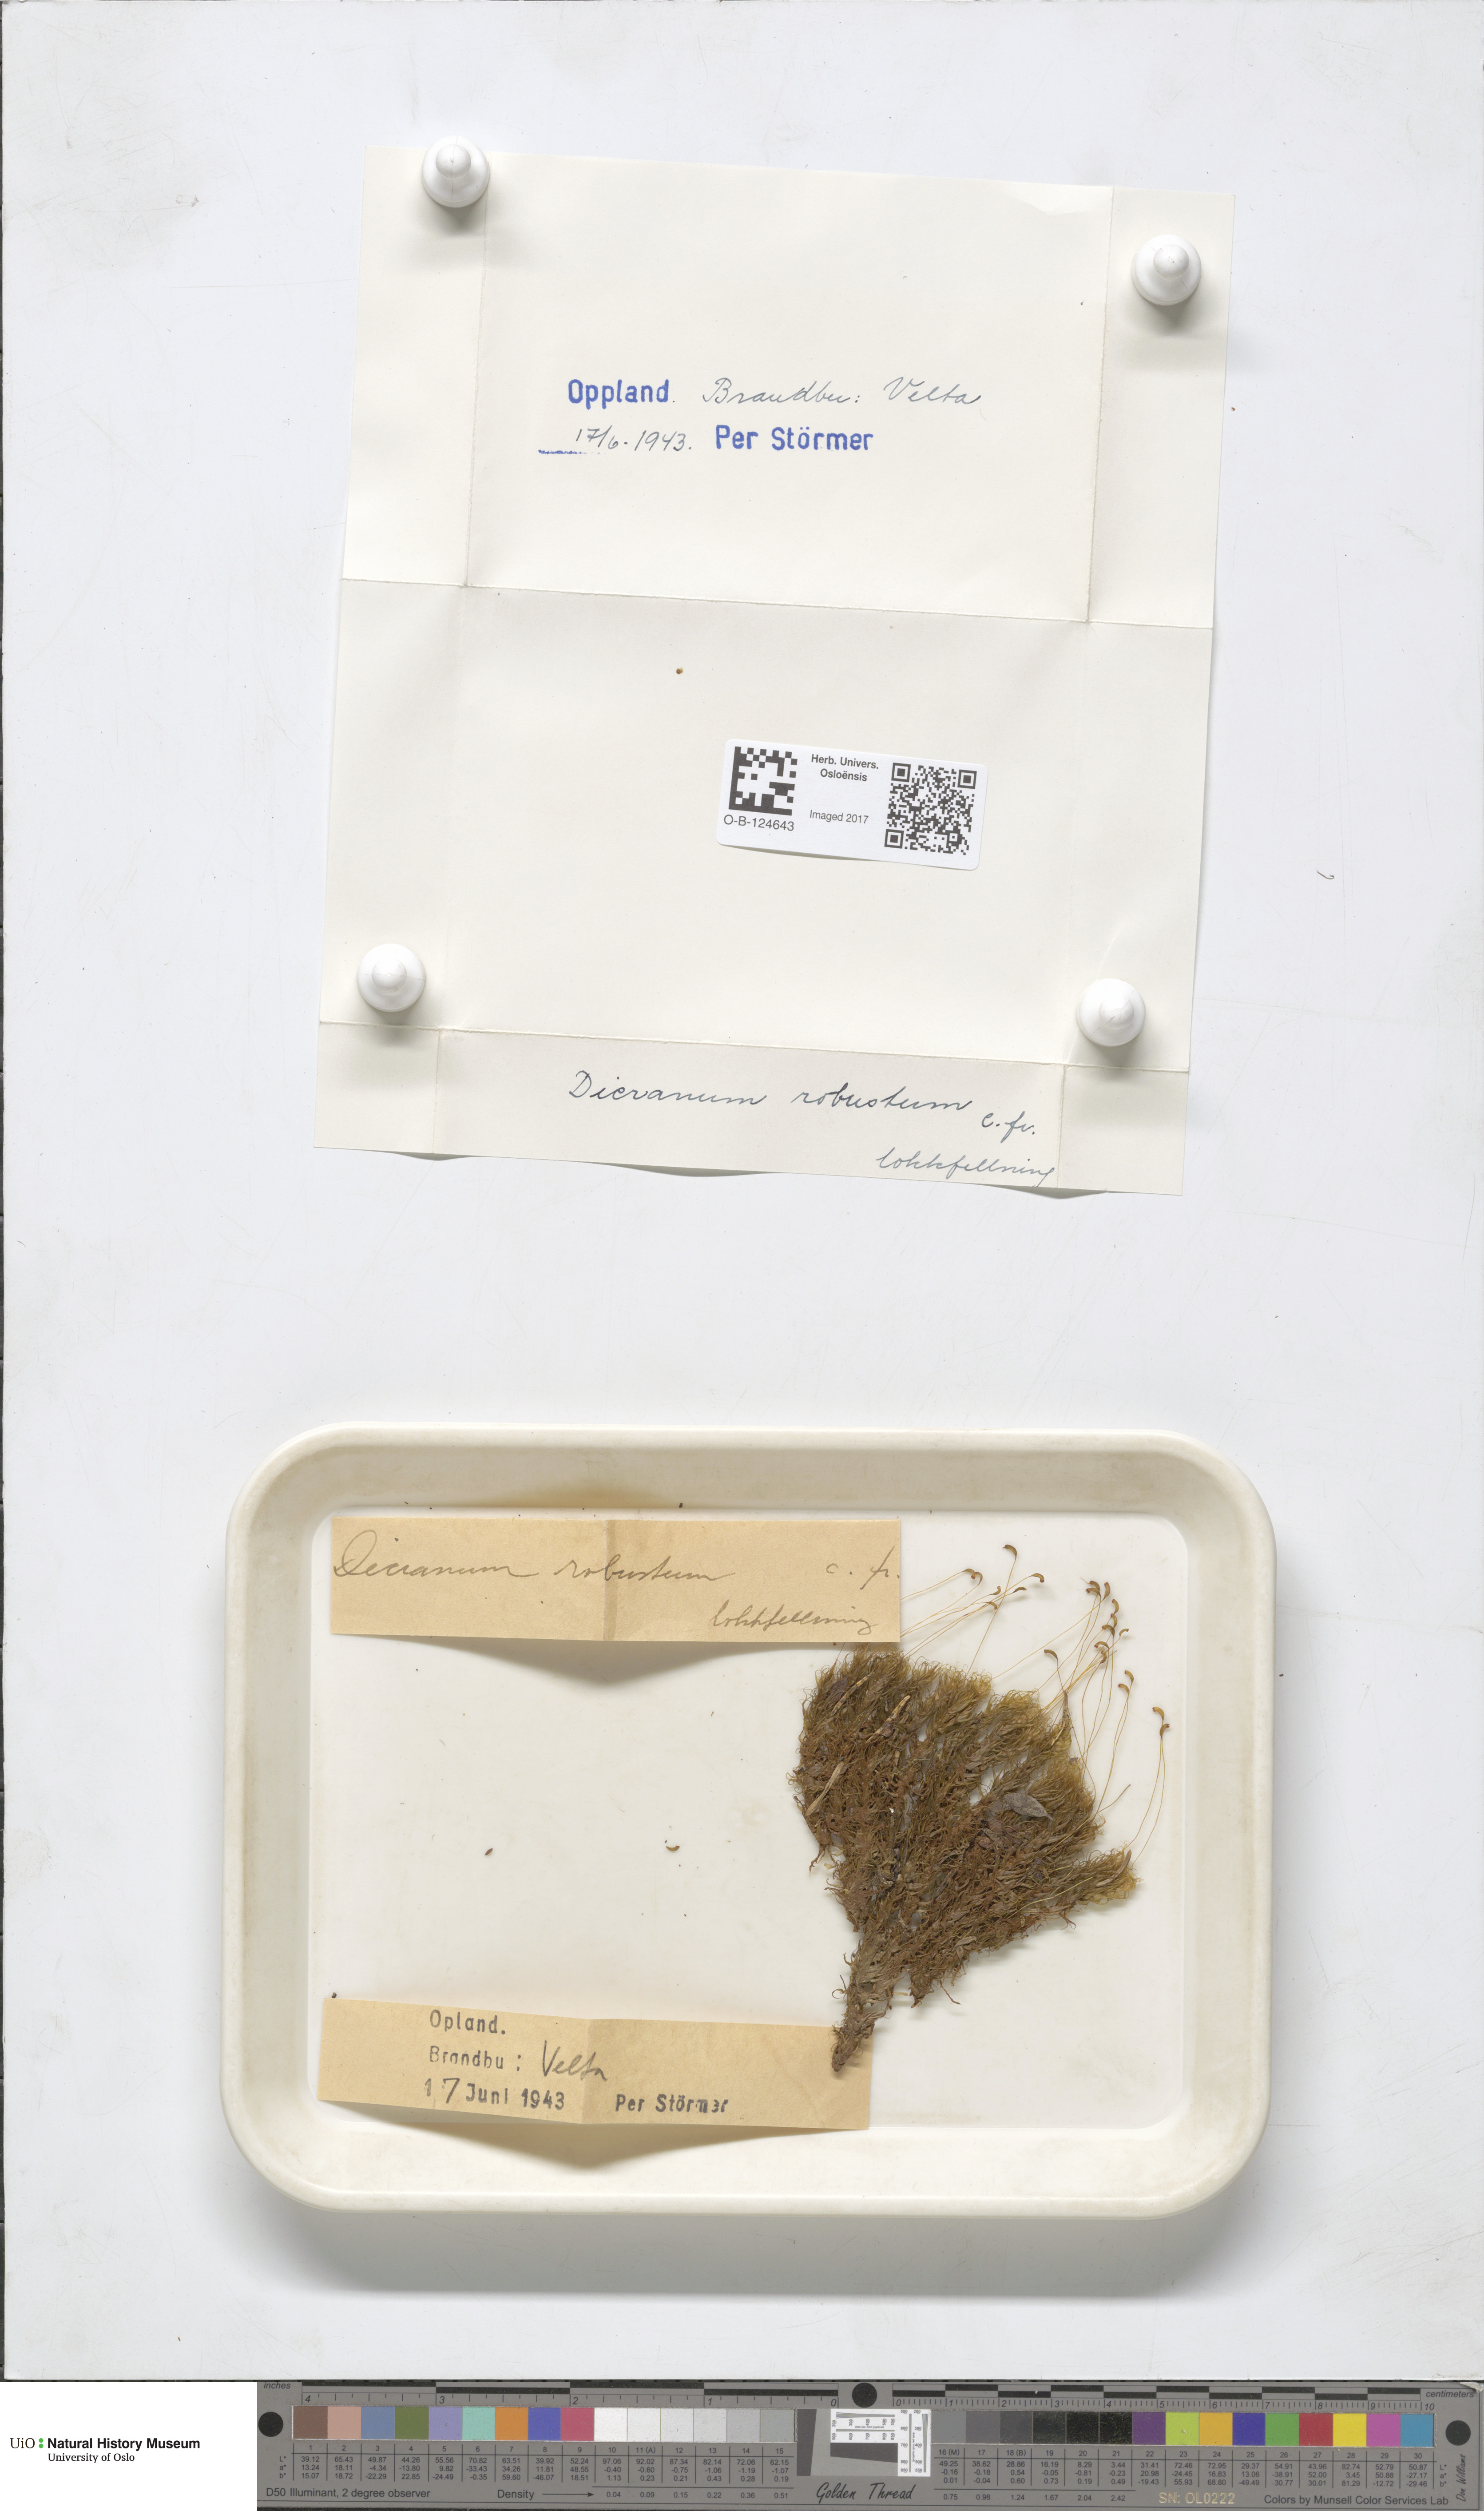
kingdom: Plantae
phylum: Bryophyta
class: Bryopsida
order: Dicranales
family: Dicranaceae
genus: Dicranum
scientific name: Dicranum drummondii
